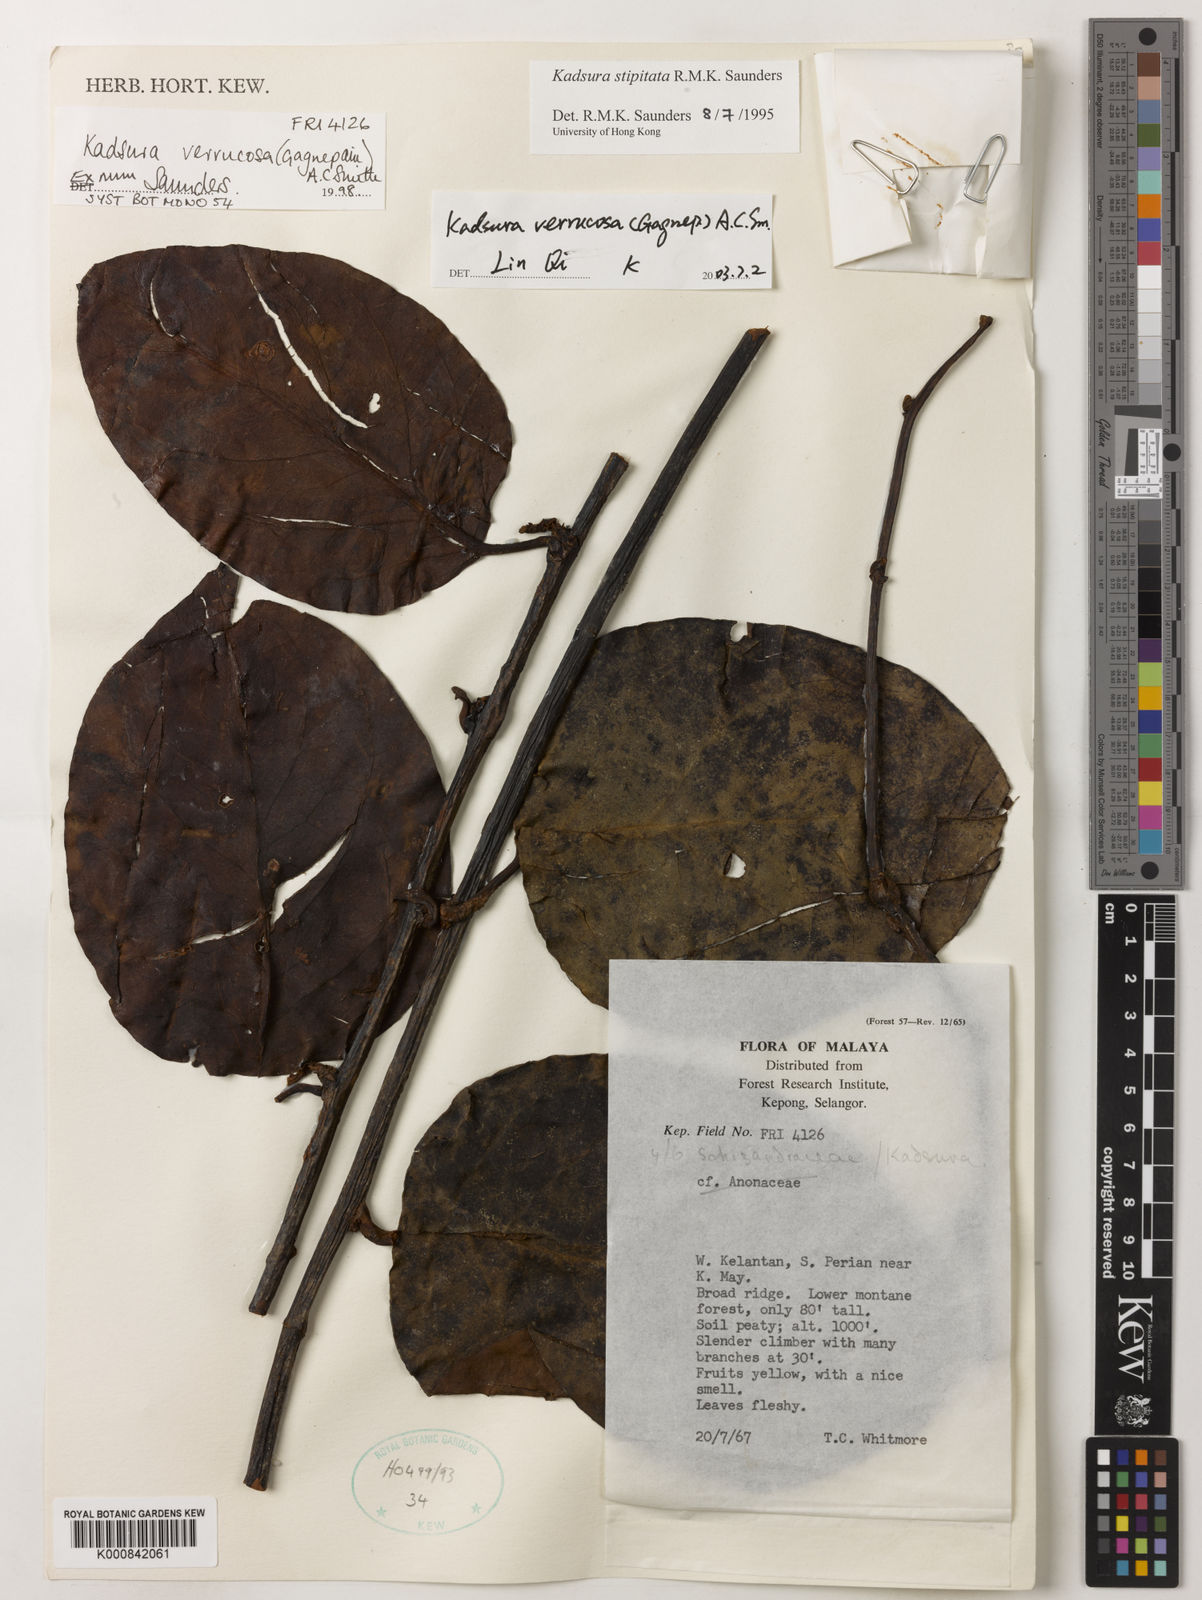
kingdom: Plantae
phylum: Tracheophyta
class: Magnoliopsida
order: Austrobaileyales
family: Schisandraceae
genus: Kadsura
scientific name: Kadsura verrucosa
